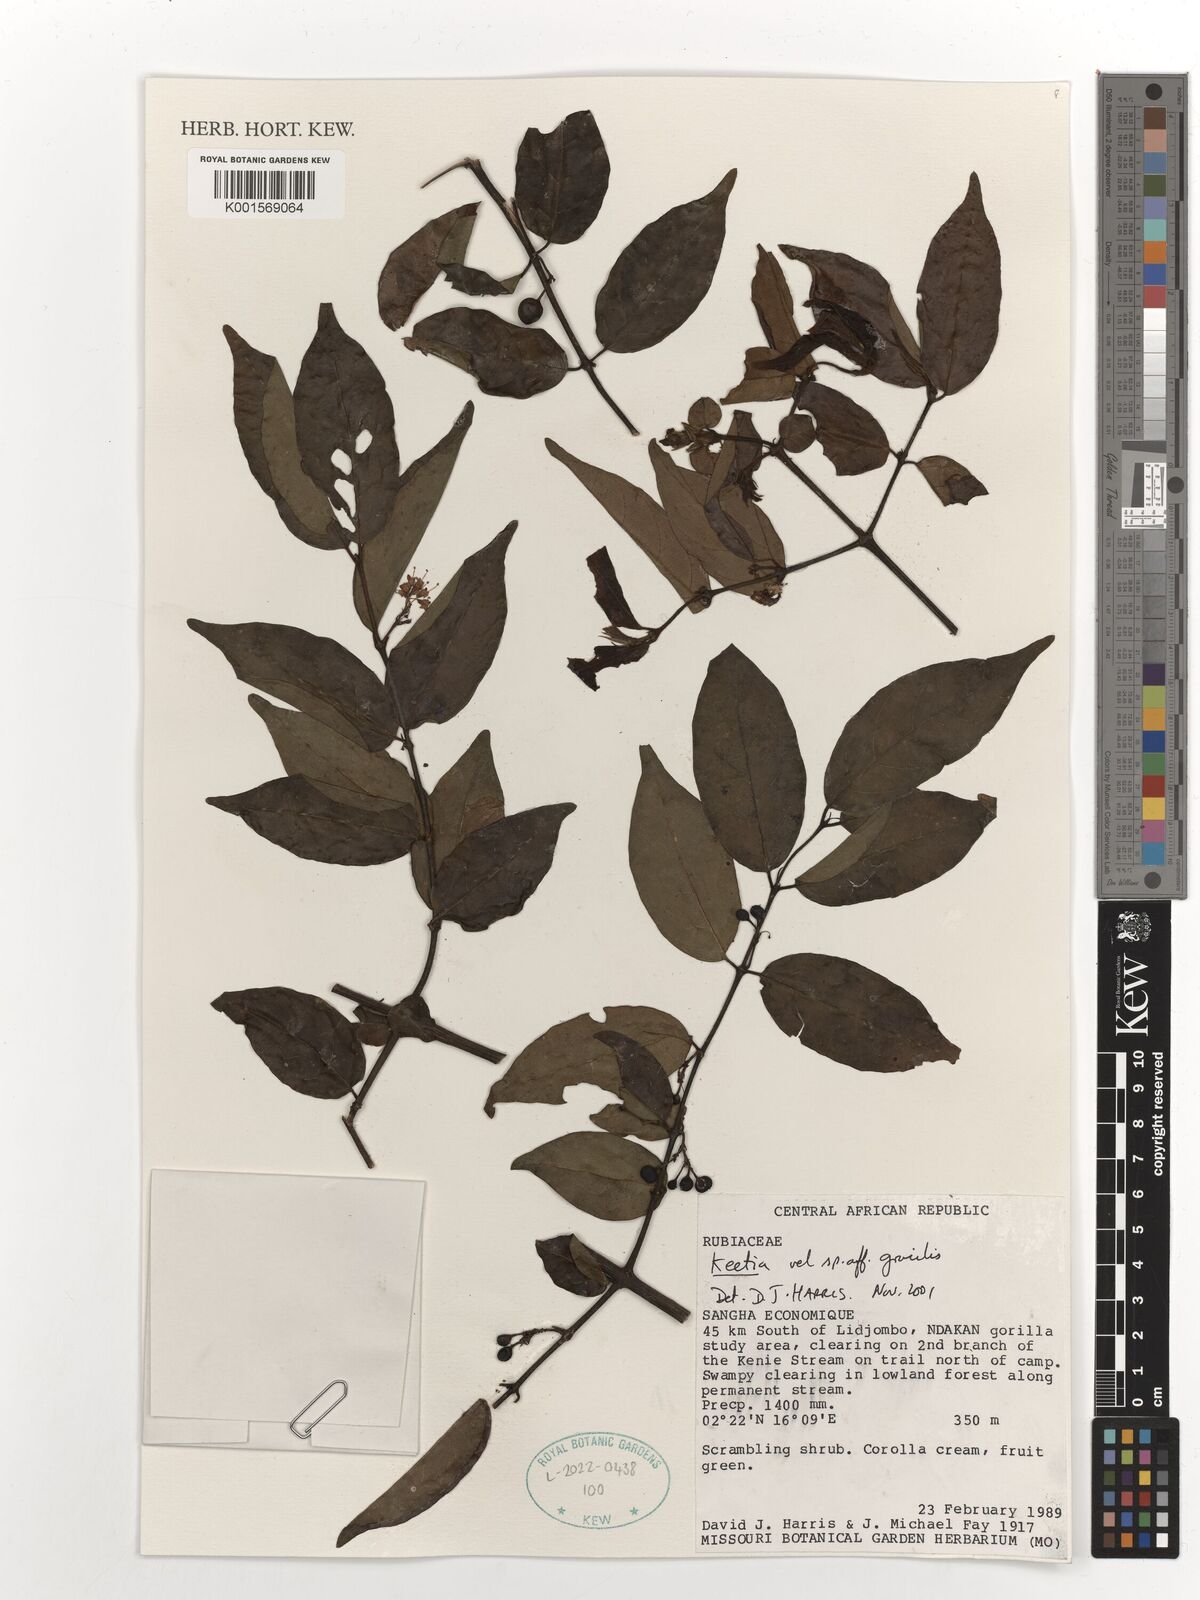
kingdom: Plantae
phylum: Tracheophyta
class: Magnoliopsida
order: Gentianales
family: Rubiaceae
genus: Keetia
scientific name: Keetia gracilis
